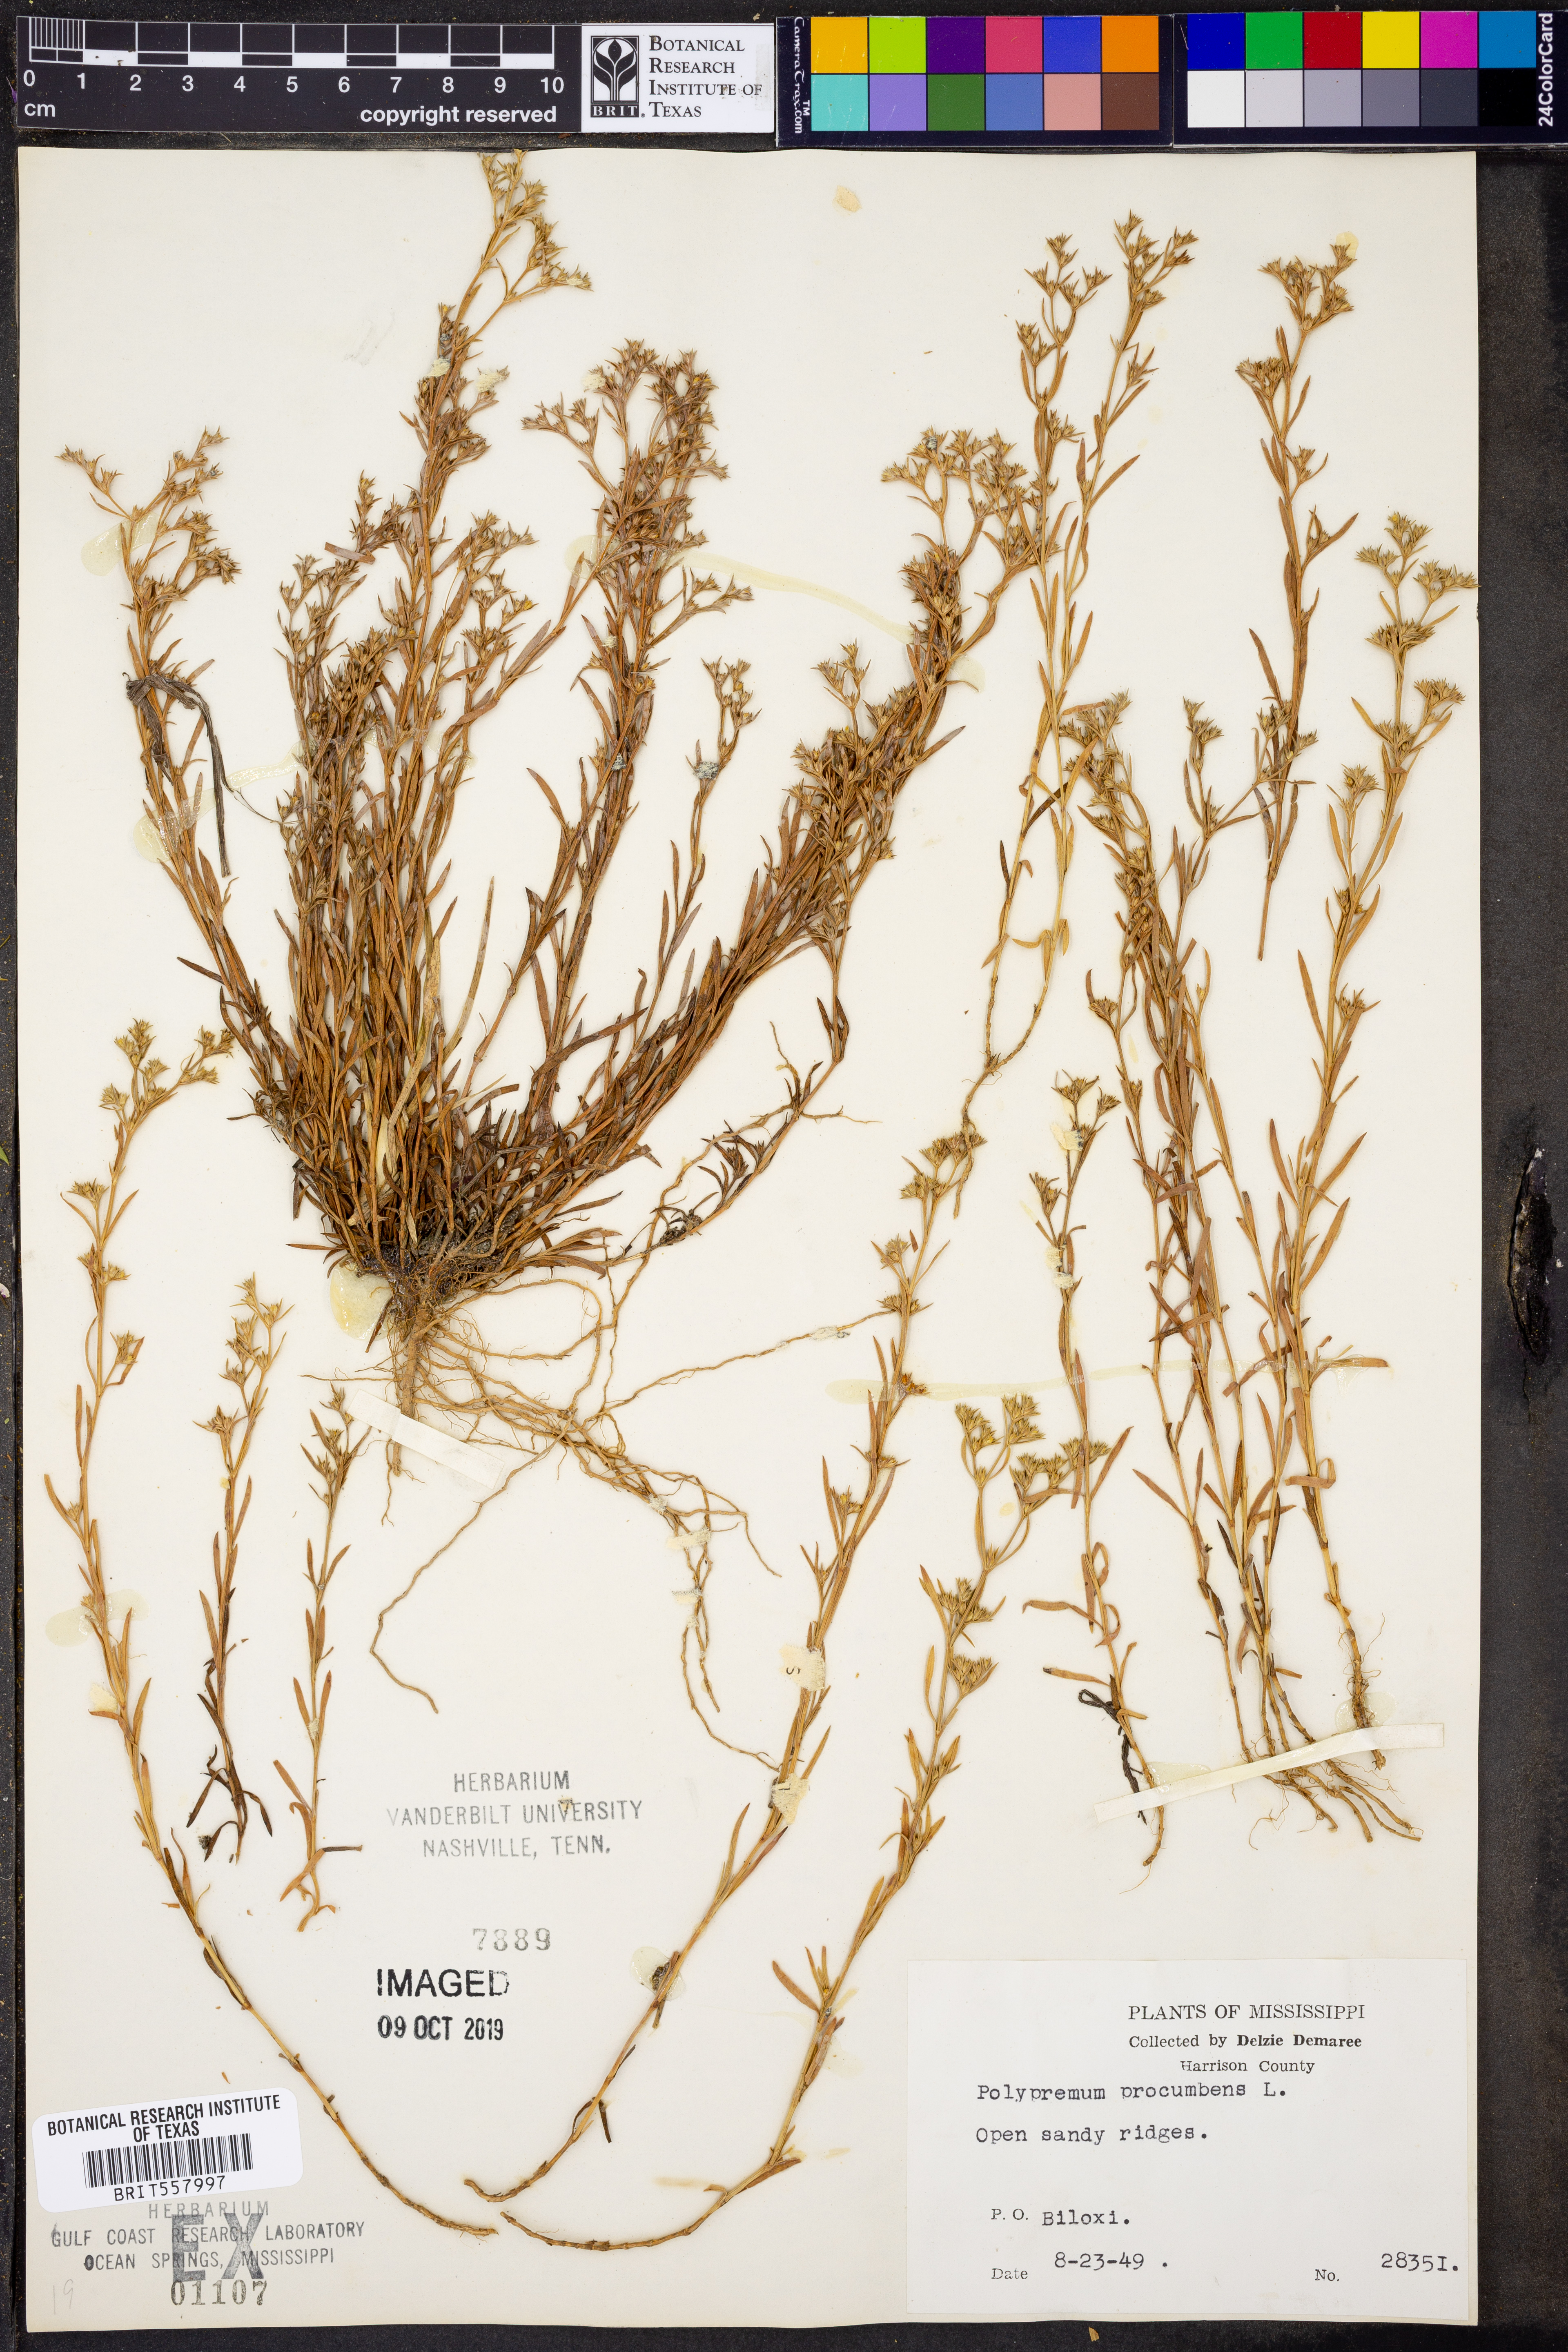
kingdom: Plantae
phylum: Tracheophyta
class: Magnoliopsida
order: Lamiales
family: Tetrachondraceae
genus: Polypremum
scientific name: Polypremum procumbens
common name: Juniper-leaf
